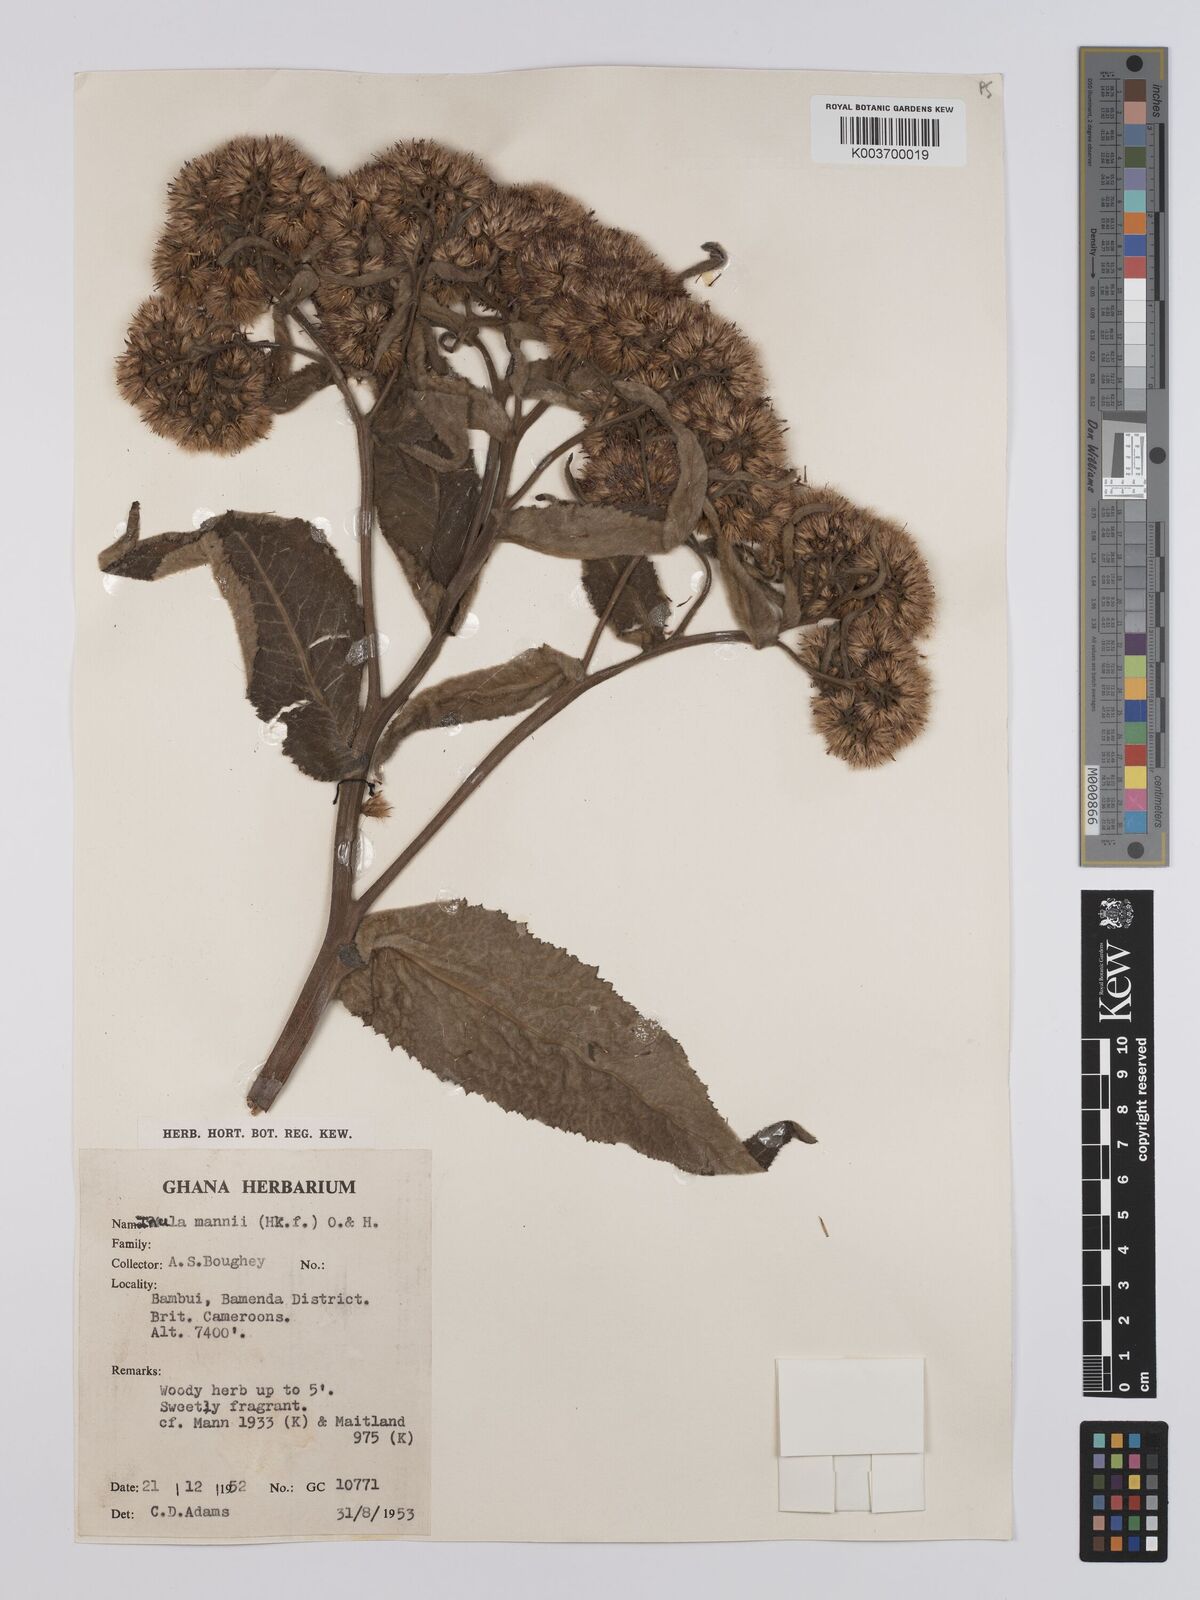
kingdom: Plantae
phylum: Tracheophyta
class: Magnoliopsida
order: Asterales
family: Asteraceae
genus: Inula
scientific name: Inula mannii
